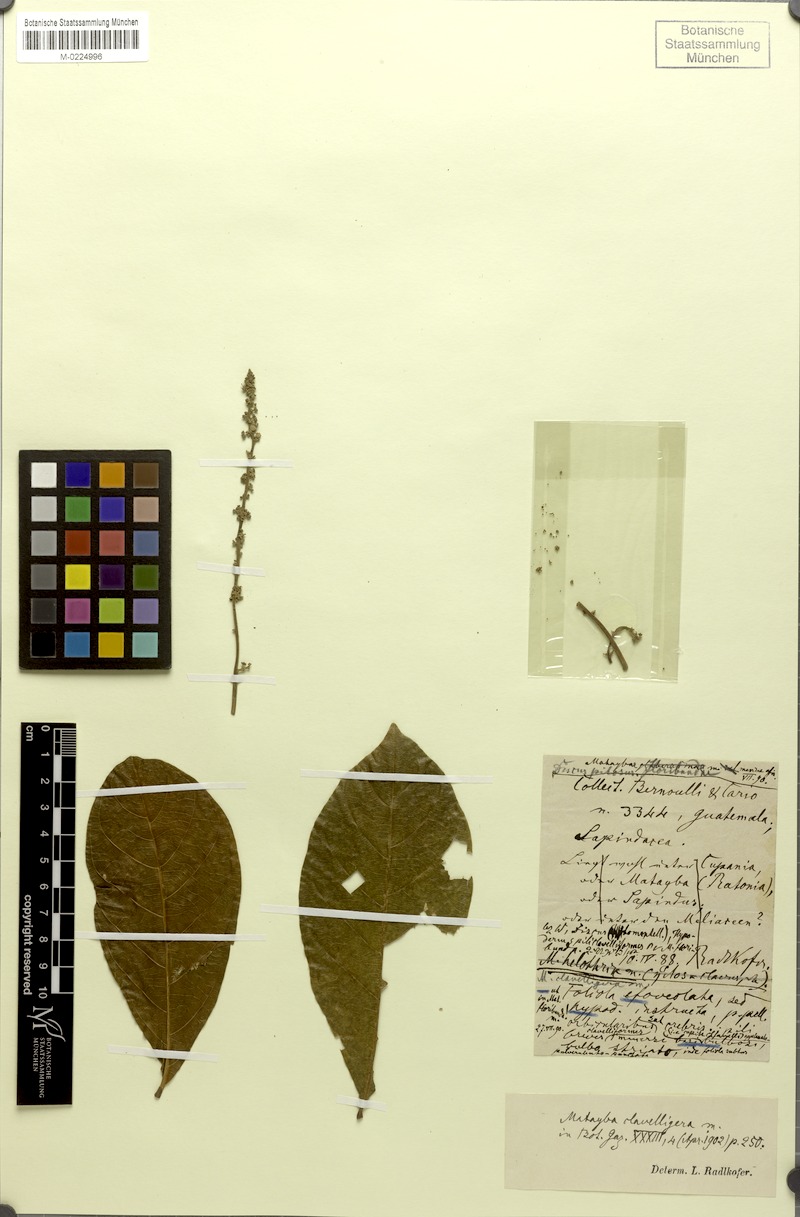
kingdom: Plantae
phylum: Tracheophyta
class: Magnoliopsida
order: Sapindales
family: Sapindaceae
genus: Matayba
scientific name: Matayba clavelligera
